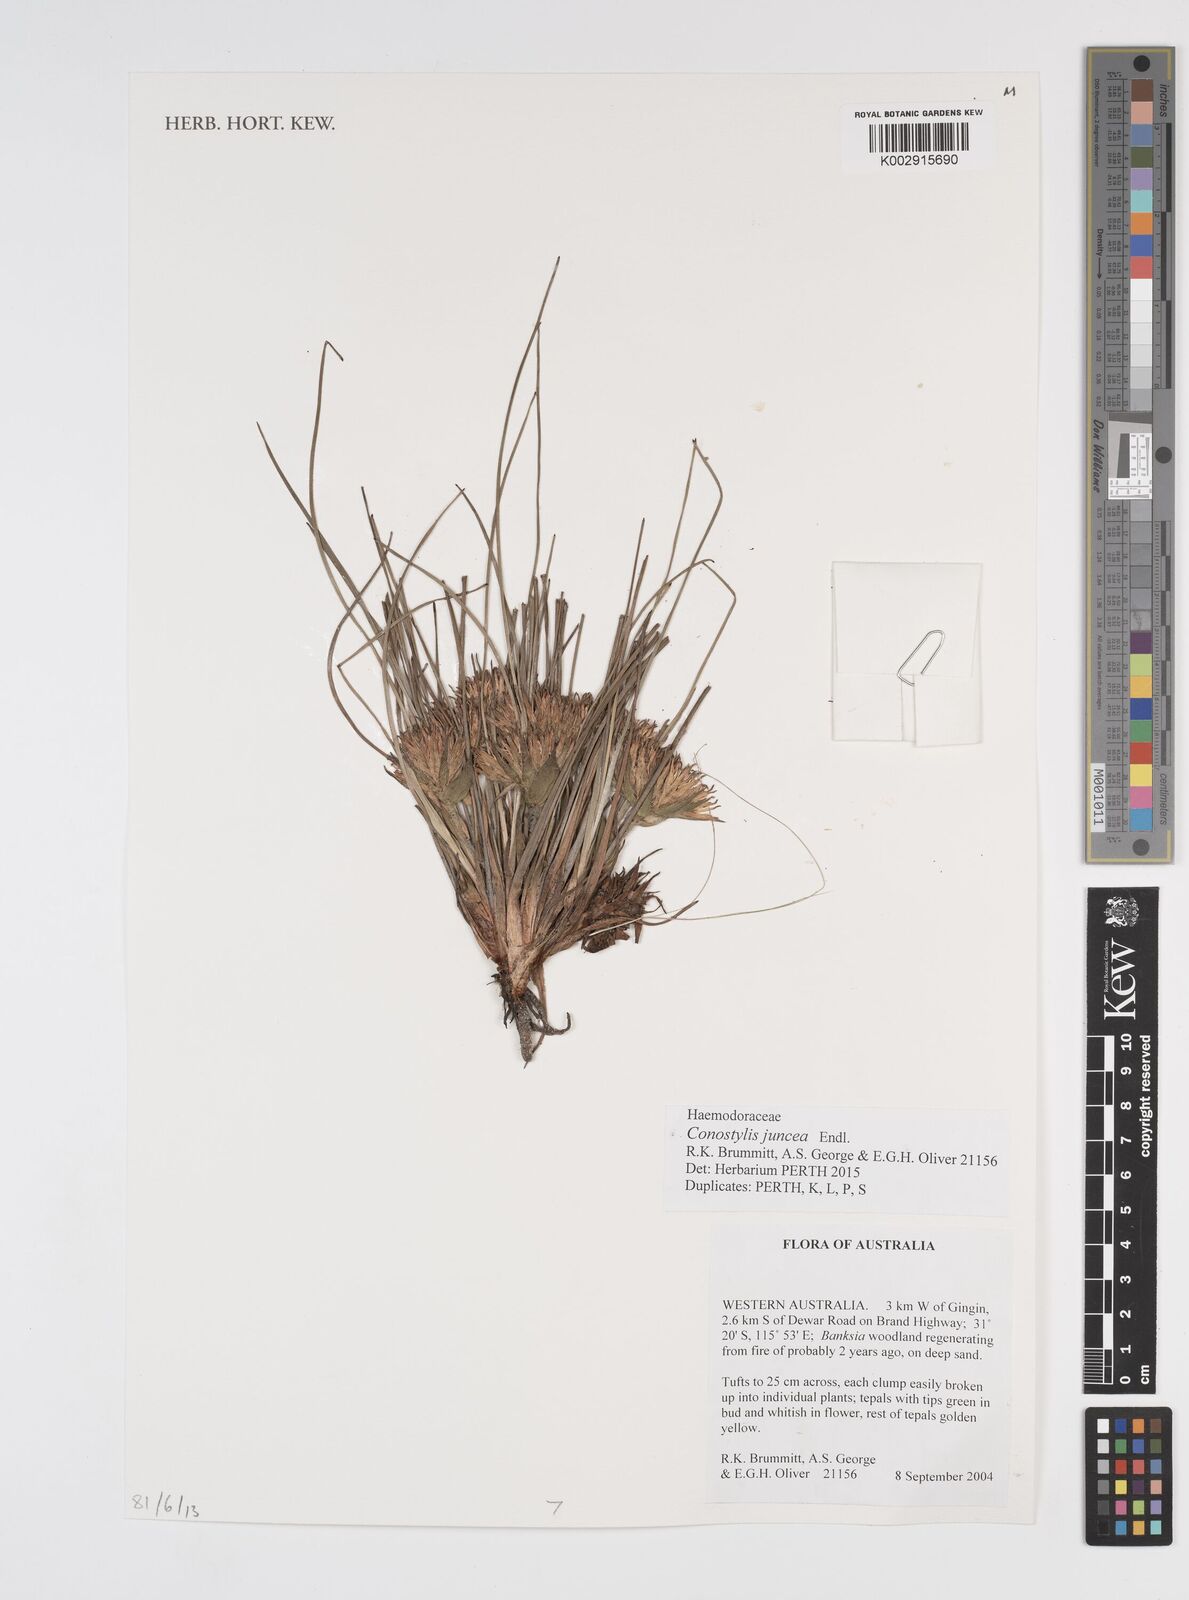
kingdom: Plantae
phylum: Tracheophyta
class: Liliopsida
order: Commelinales
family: Haemodoraceae
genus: Conostylis
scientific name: Conostylis juncea
